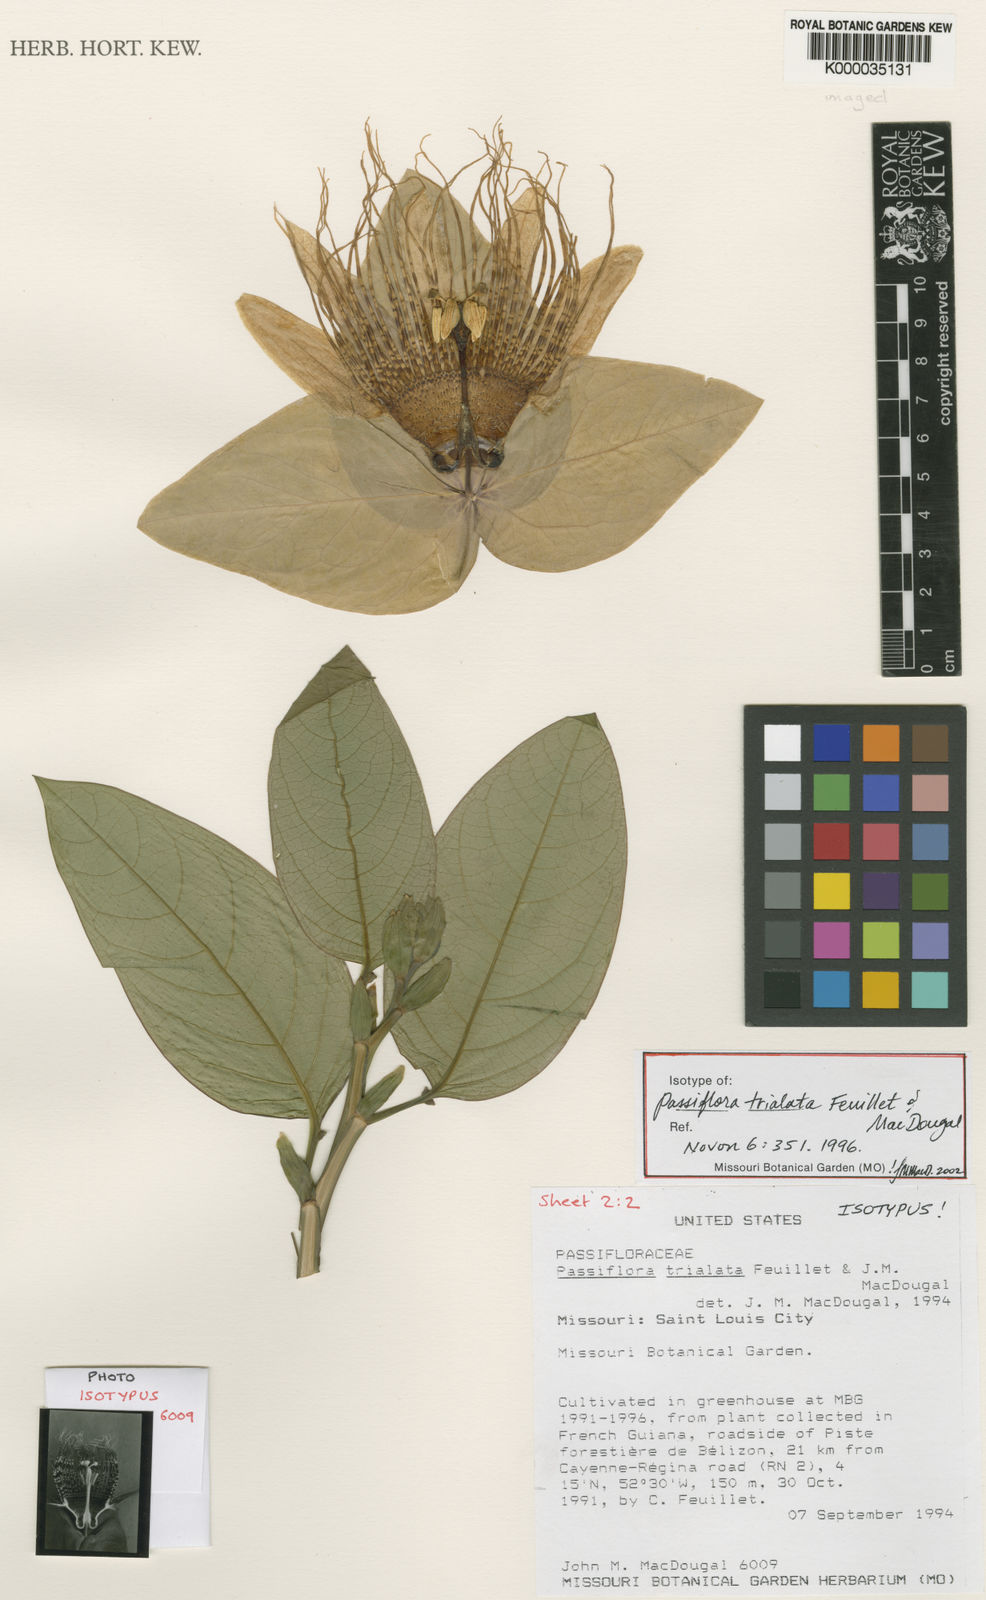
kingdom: Plantae
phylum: Tracheophyta
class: Magnoliopsida
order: Malpighiales
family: Passifloraceae
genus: Passiflora
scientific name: Passiflora trialata
